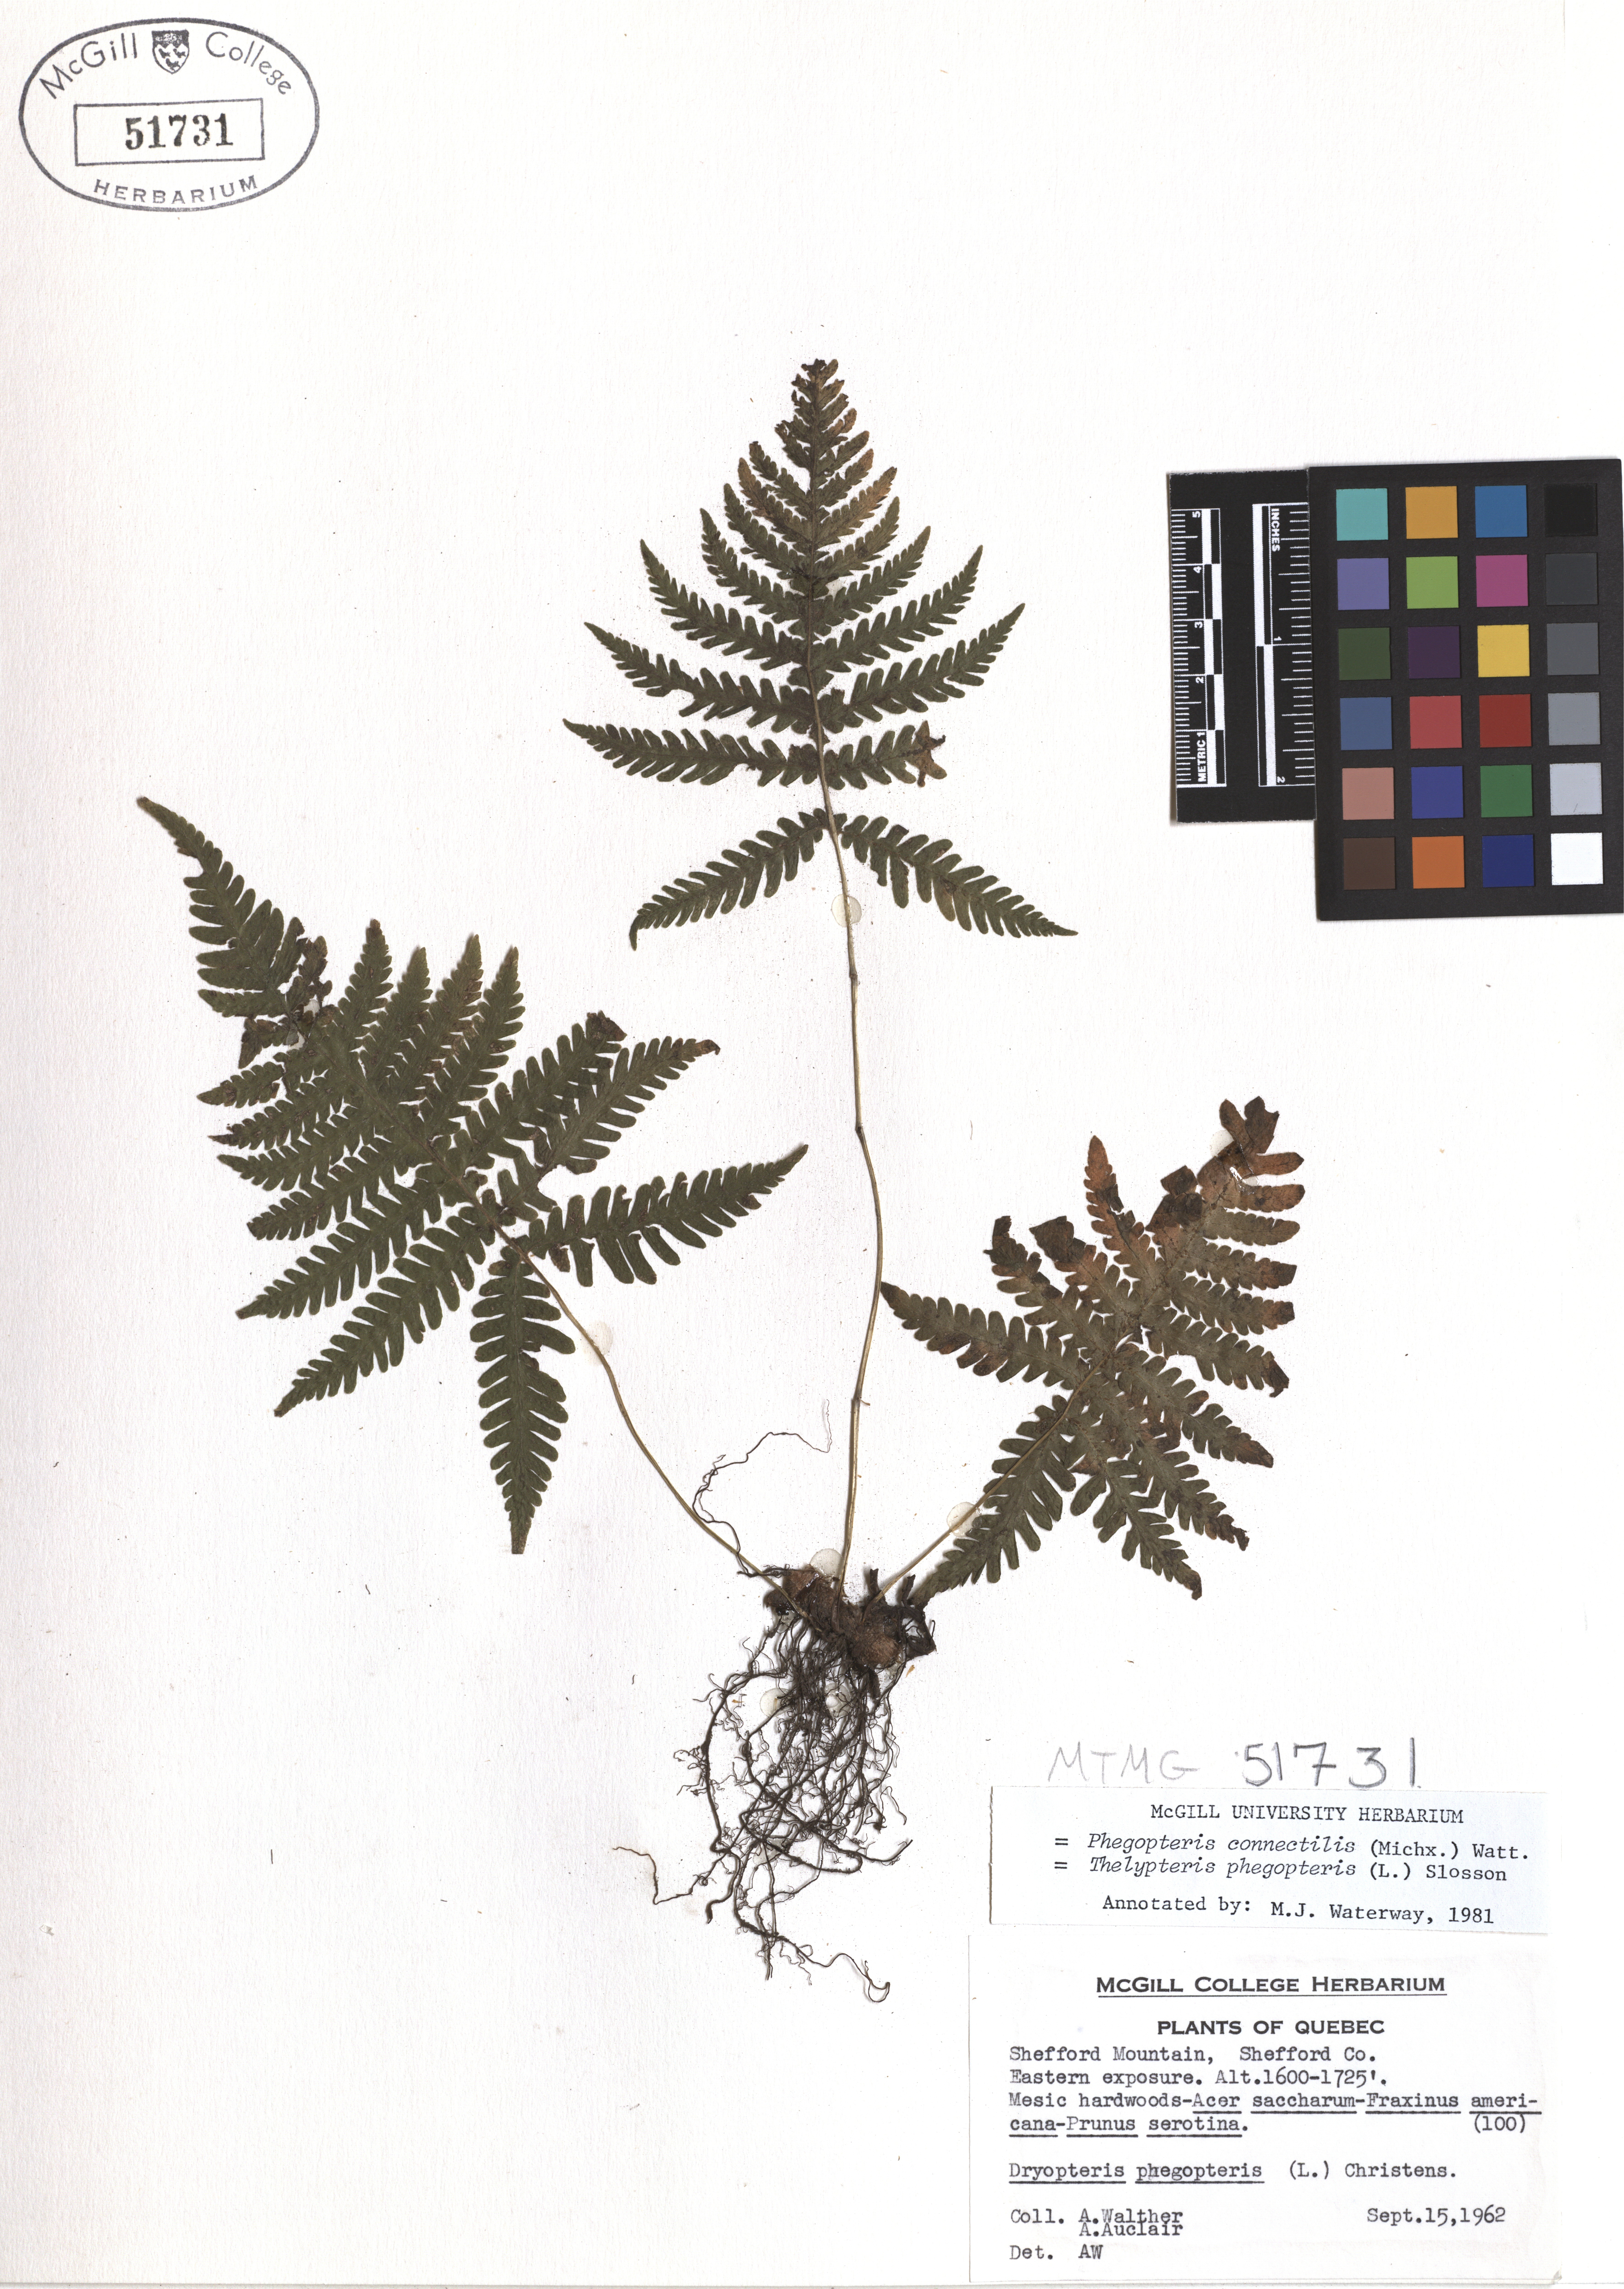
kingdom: Plantae
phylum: Tracheophyta
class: Polypodiopsida
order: Polypodiales
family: Thelypteridaceae
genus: Phegopteris
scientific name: Phegopteris connectilis
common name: Beech fern
